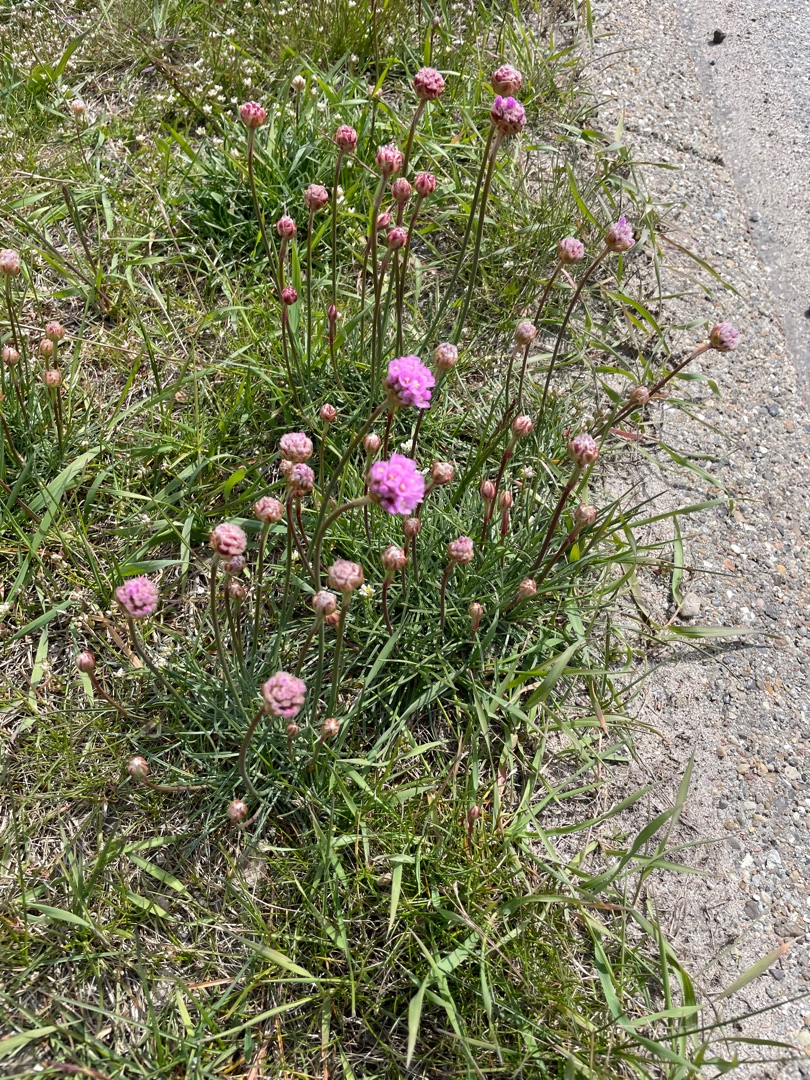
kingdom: Plantae
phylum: Tracheophyta
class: Magnoliopsida
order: Caryophyllales
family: Plumbaginaceae
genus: Armeria
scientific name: Armeria maritima
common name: Engelskgræs
